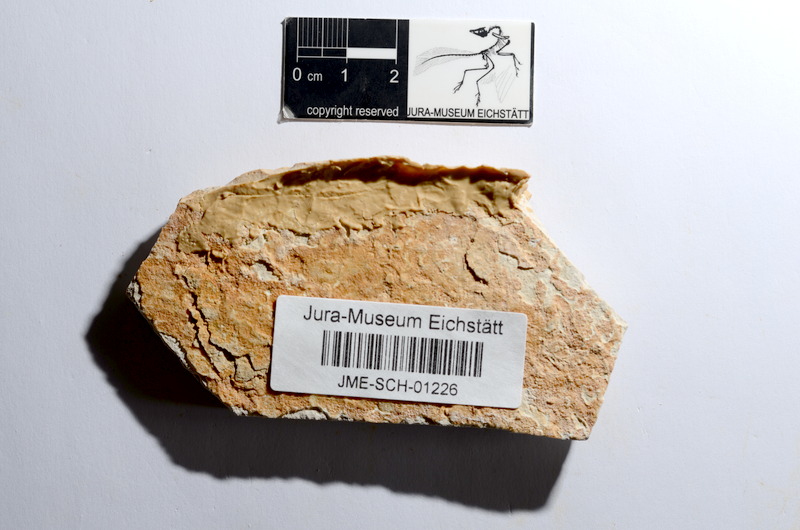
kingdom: Animalia
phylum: Chordata
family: Ascalaboidae
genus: Tharsis
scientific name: Tharsis dubius
